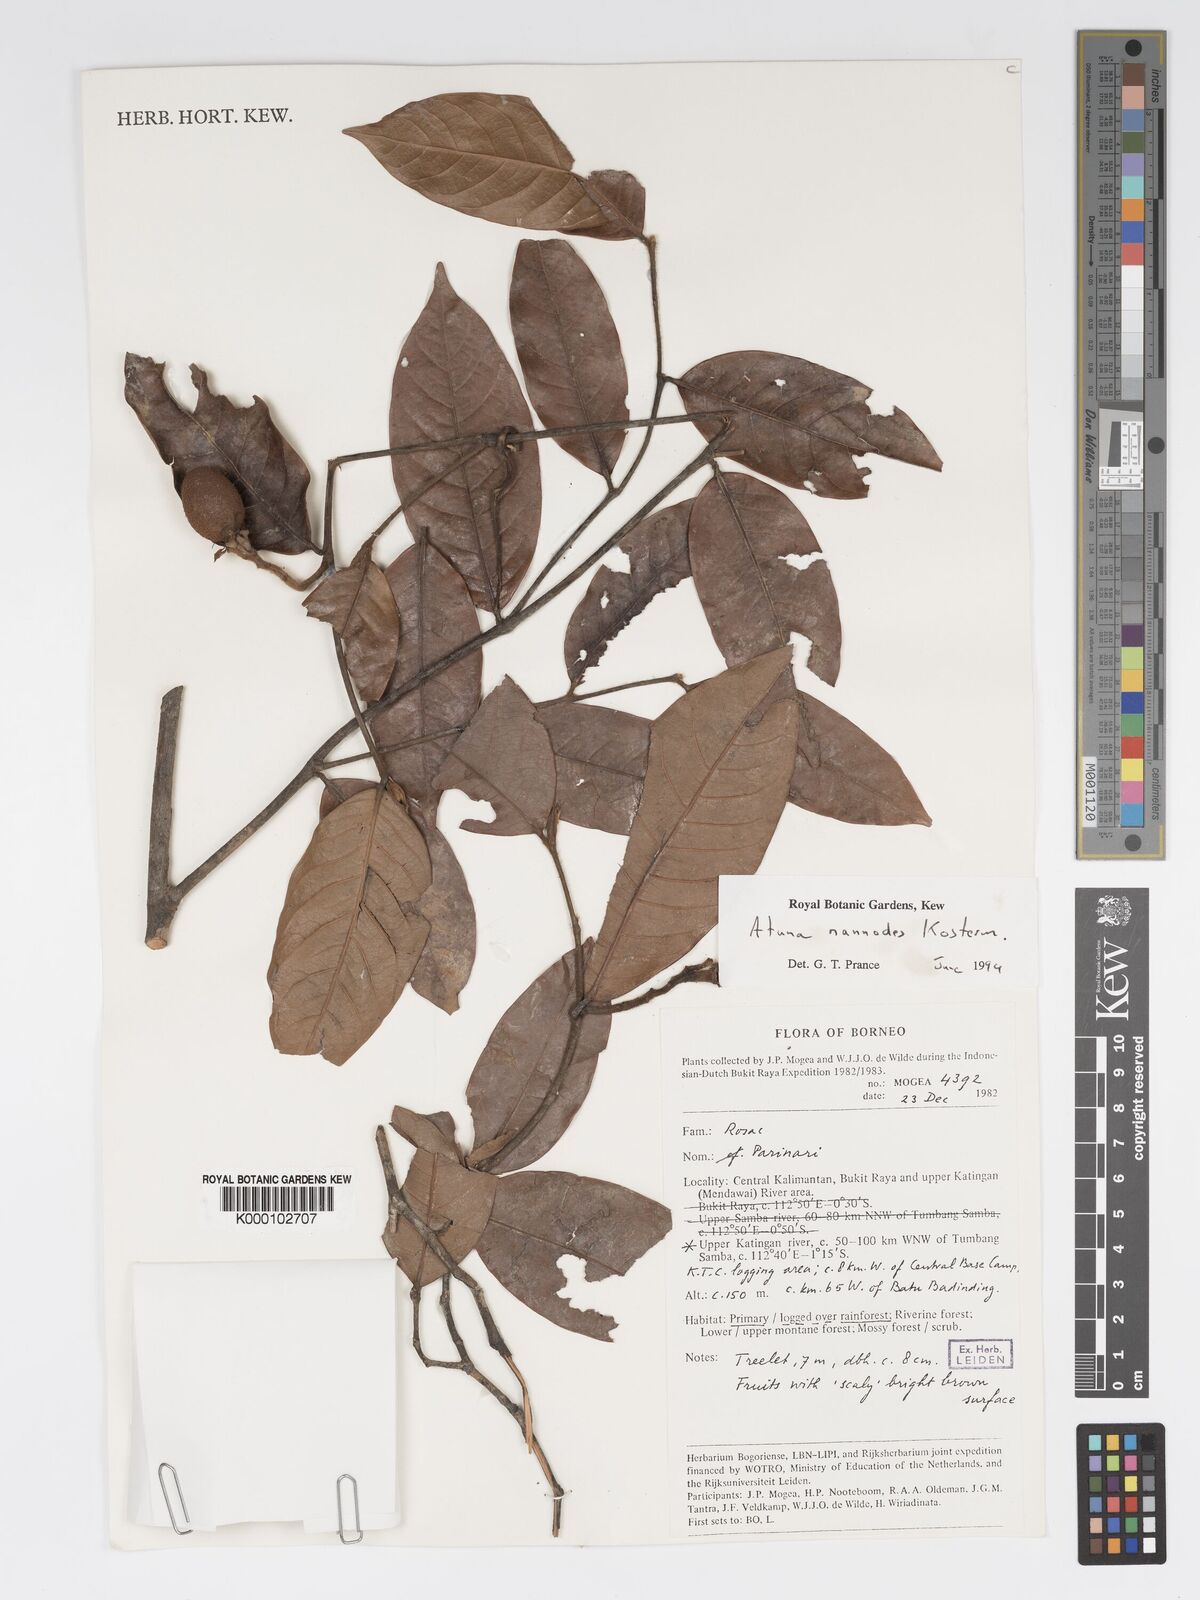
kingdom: Plantae
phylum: Tracheophyta
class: Magnoliopsida
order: Malpighiales
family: Chrysobalanaceae
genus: Atuna
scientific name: Atuna nannodes
